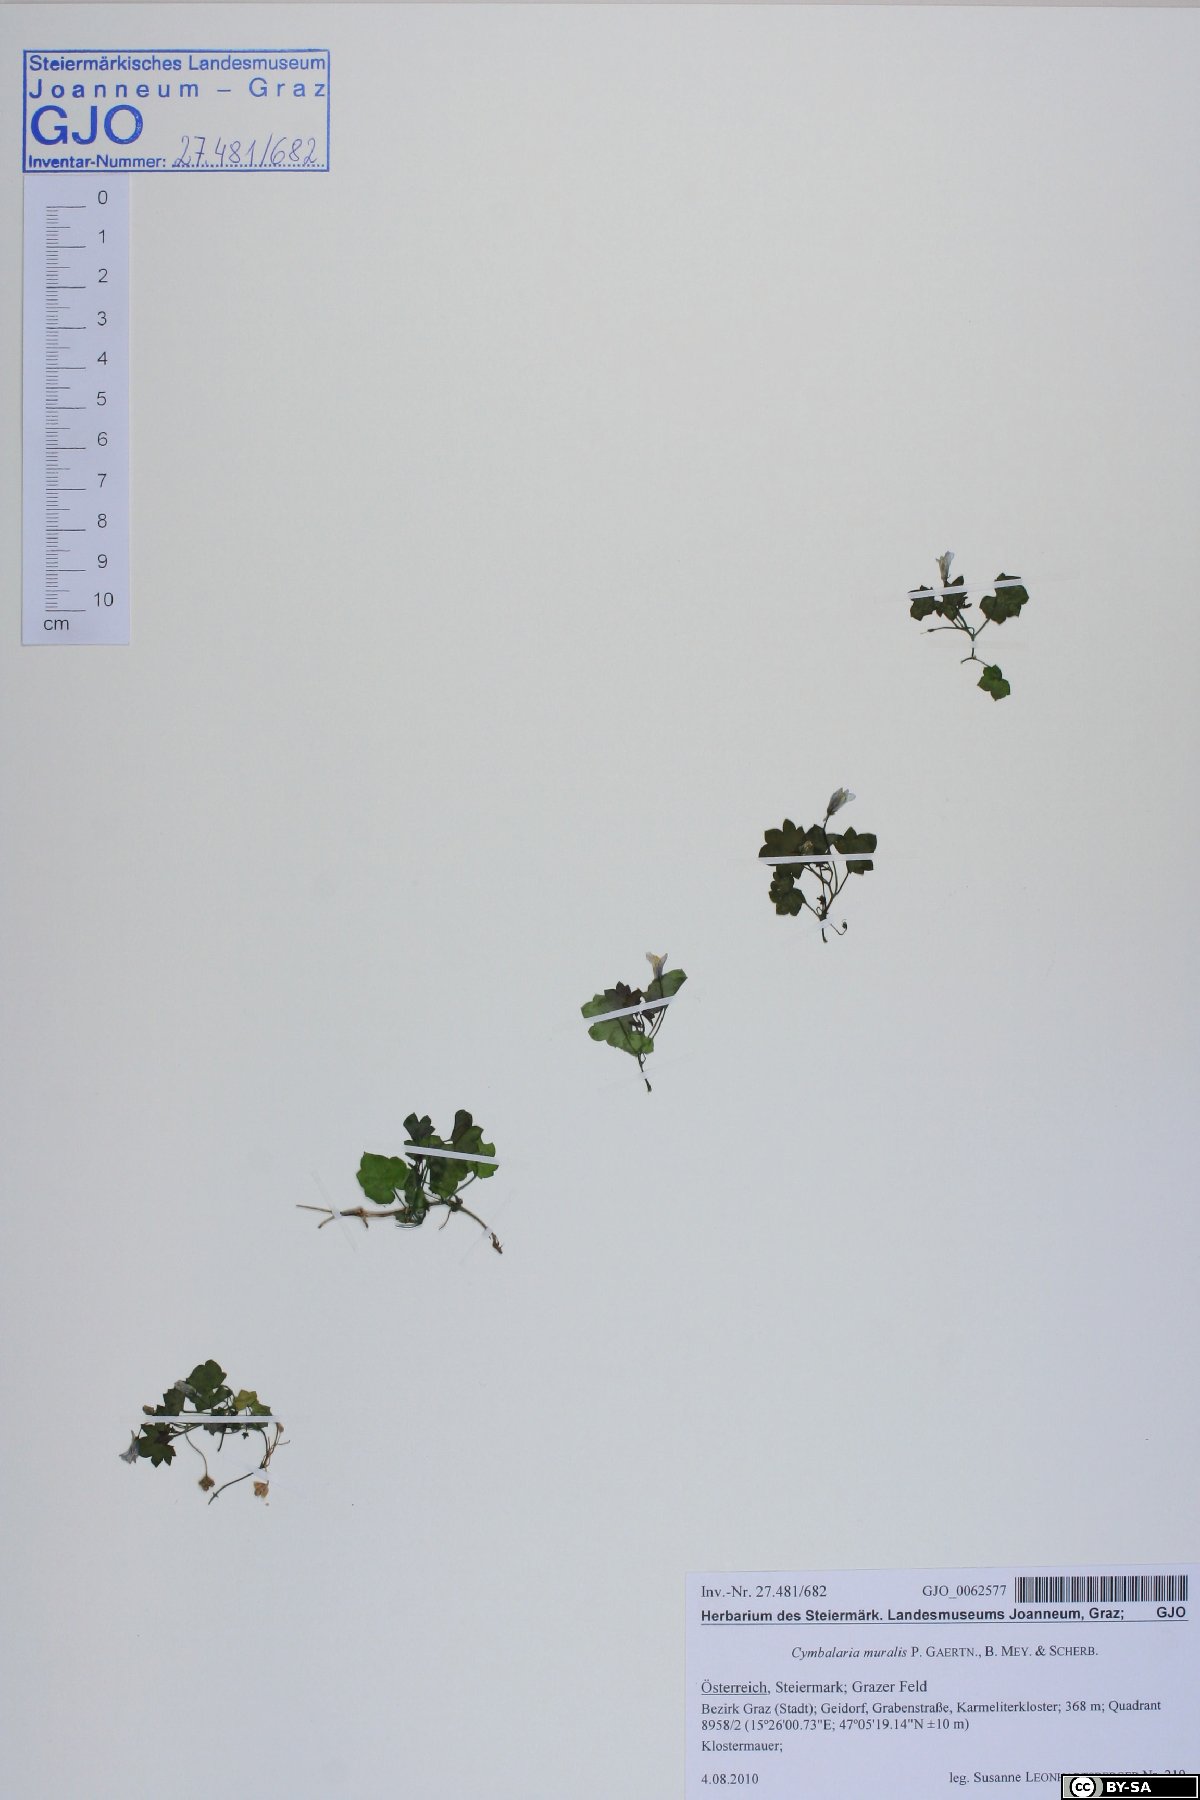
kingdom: Plantae
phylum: Tracheophyta
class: Magnoliopsida
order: Lamiales
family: Plantaginaceae
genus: Cymbalaria
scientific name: Cymbalaria muralis
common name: Ivy-leaved toadflax
